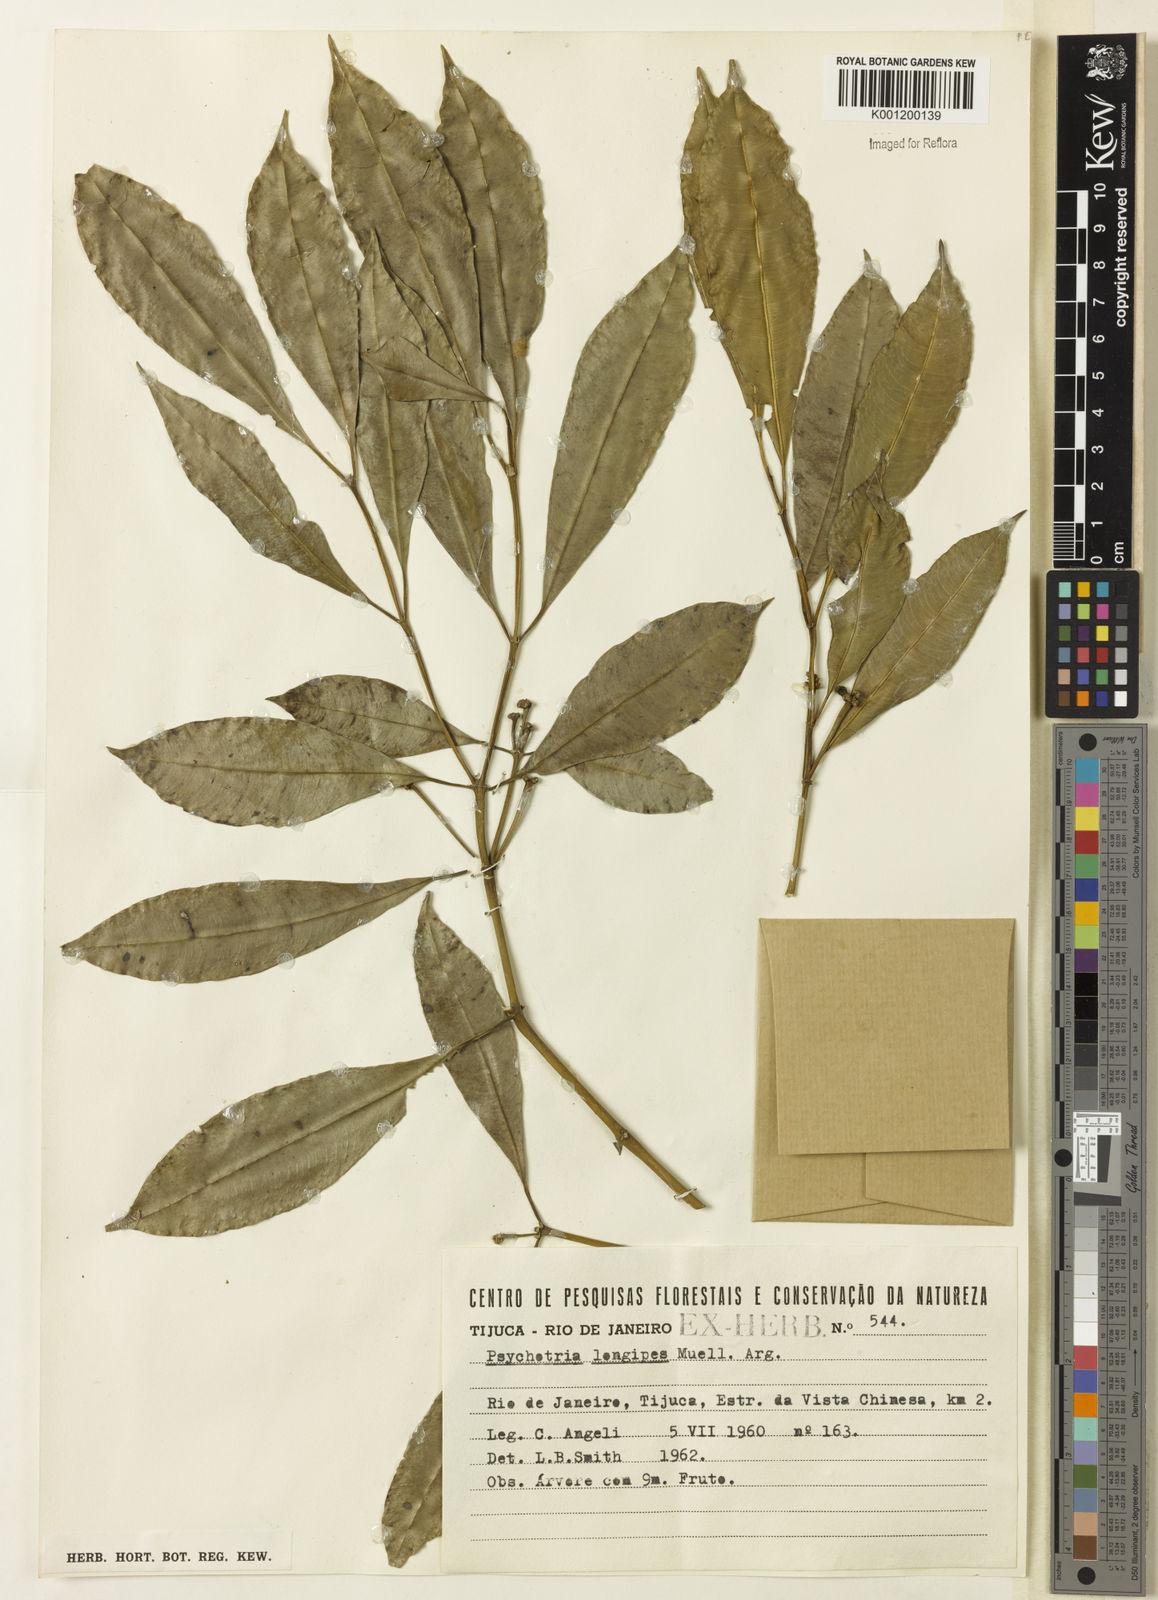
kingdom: Plantae
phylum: Tracheophyta
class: Magnoliopsida
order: Gentianales
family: Rubiaceae
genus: Palicourea
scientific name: Palicourea sessilis
